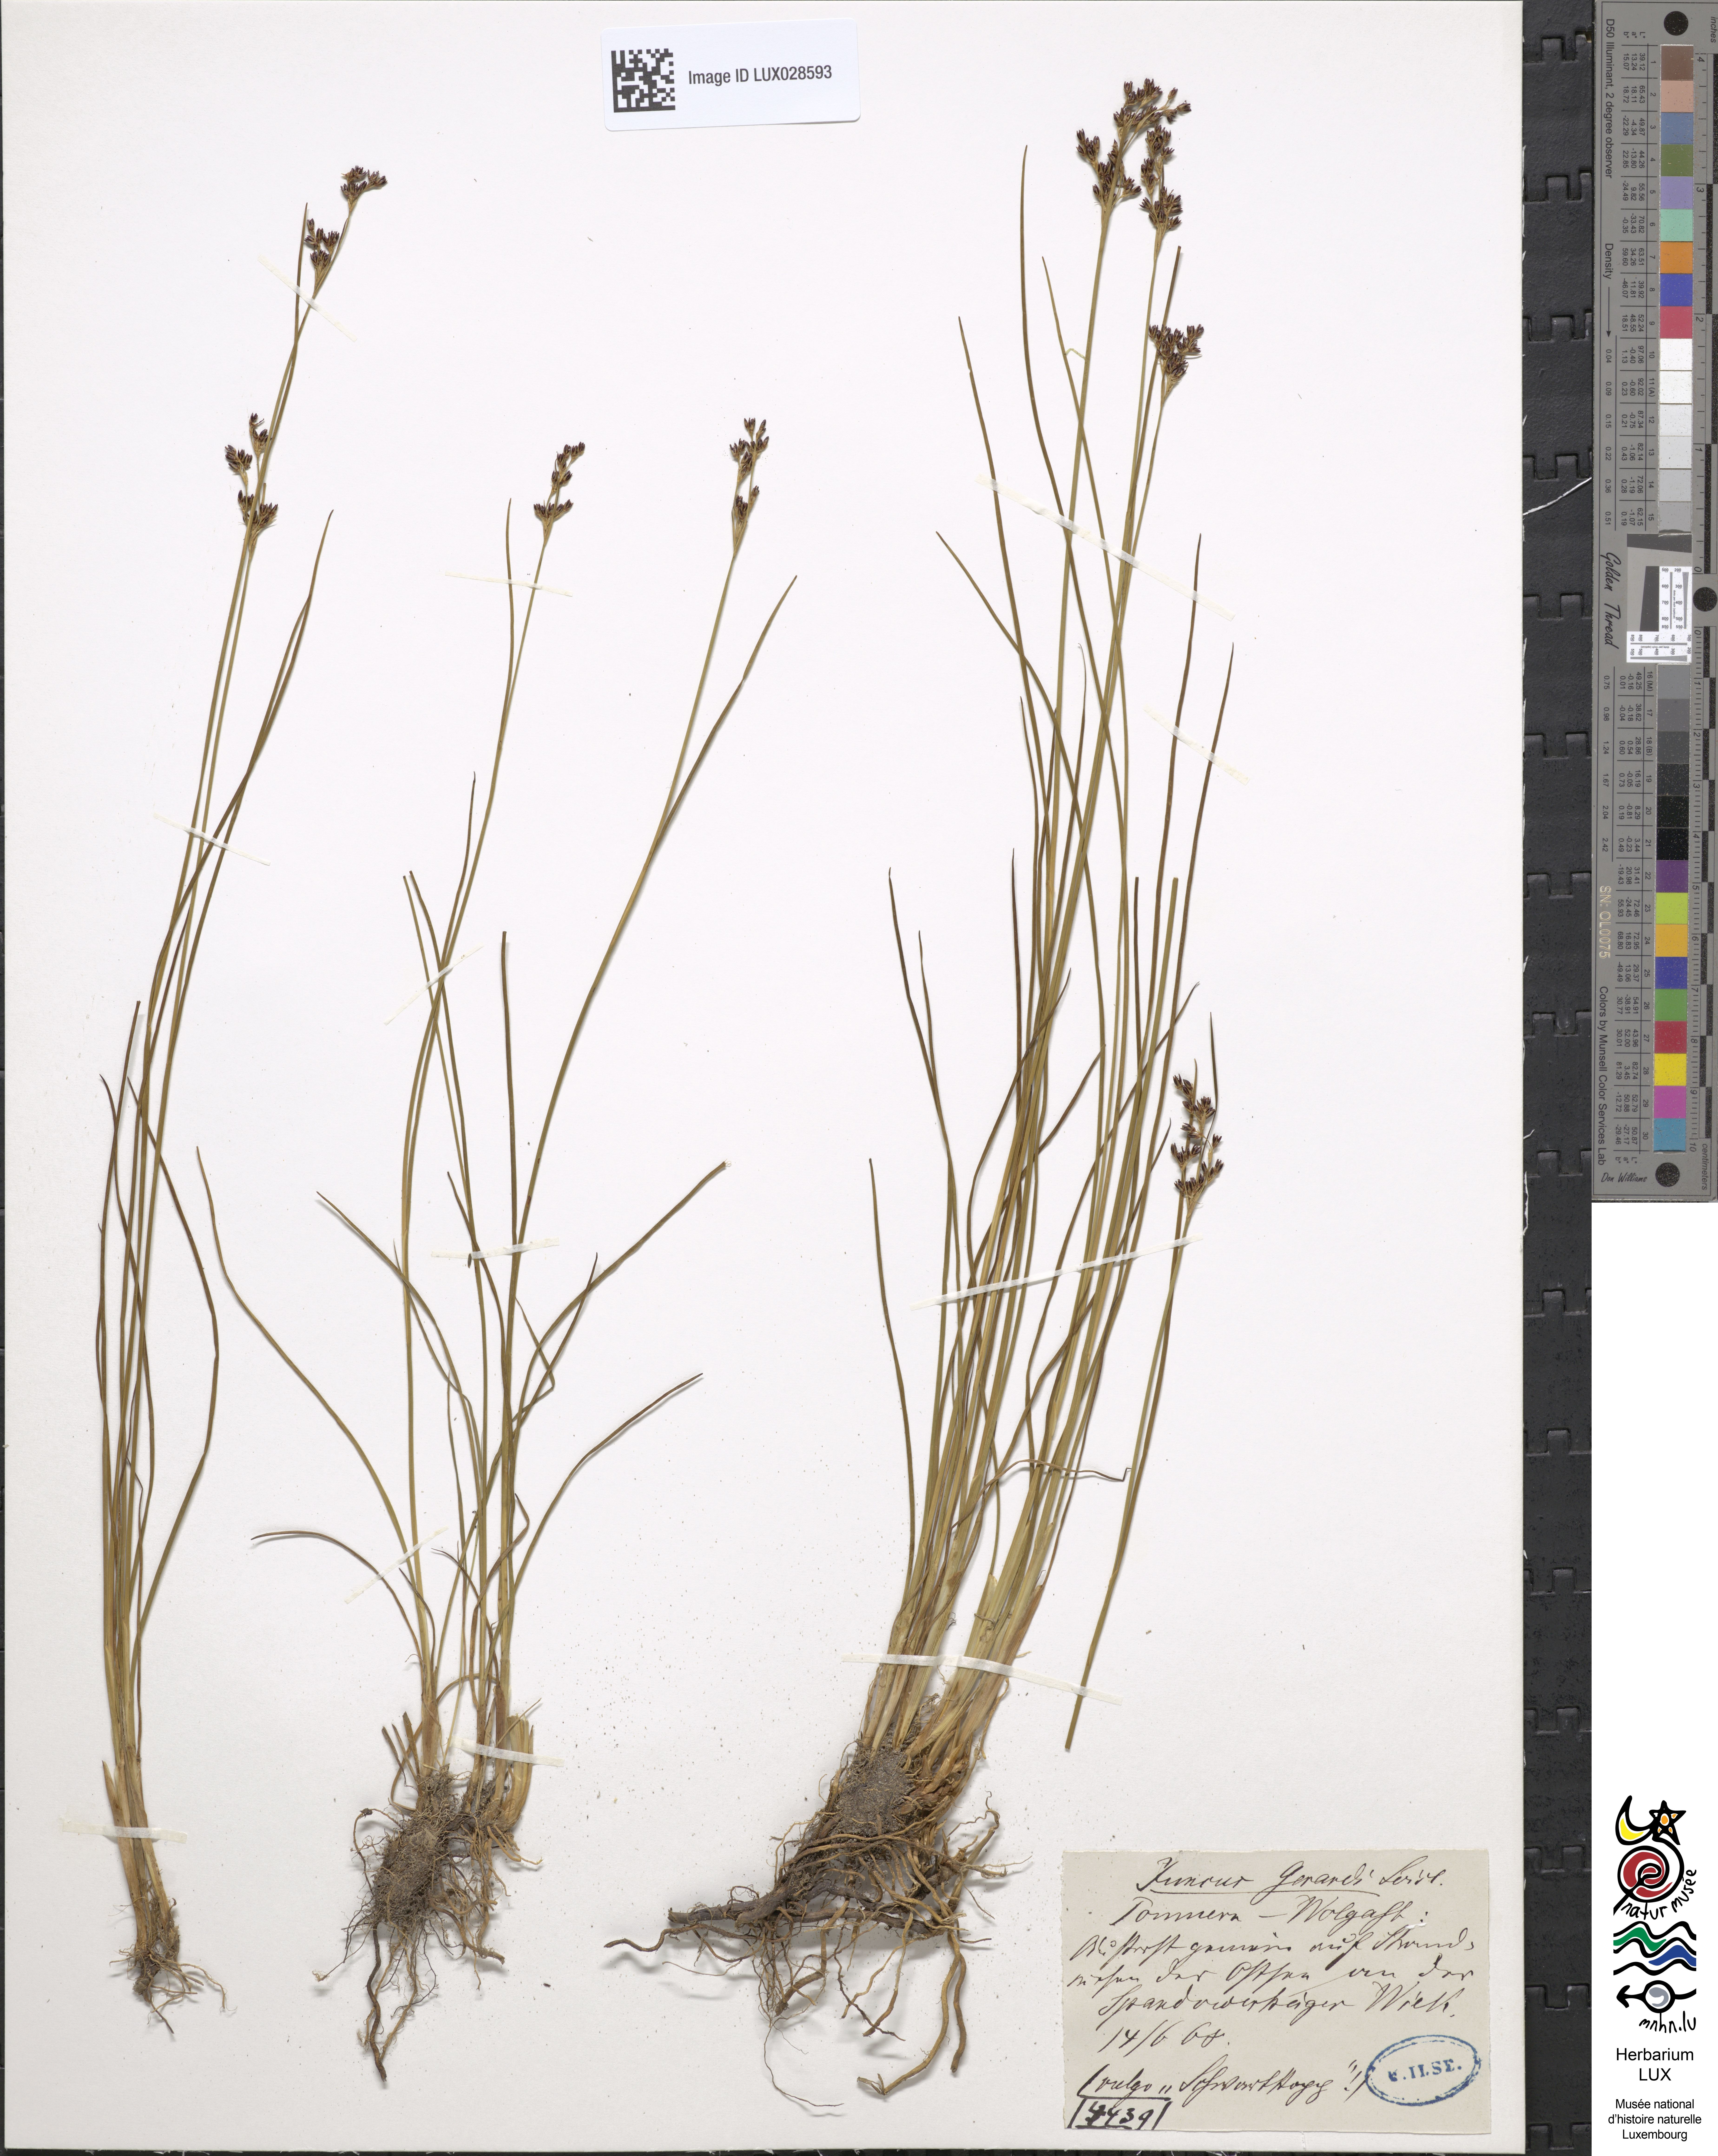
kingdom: Plantae
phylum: Tracheophyta
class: Liliopsida
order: Poales
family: Juncaceae
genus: Juncus
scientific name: Juncus gerardi
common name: Saltmarsh rush
